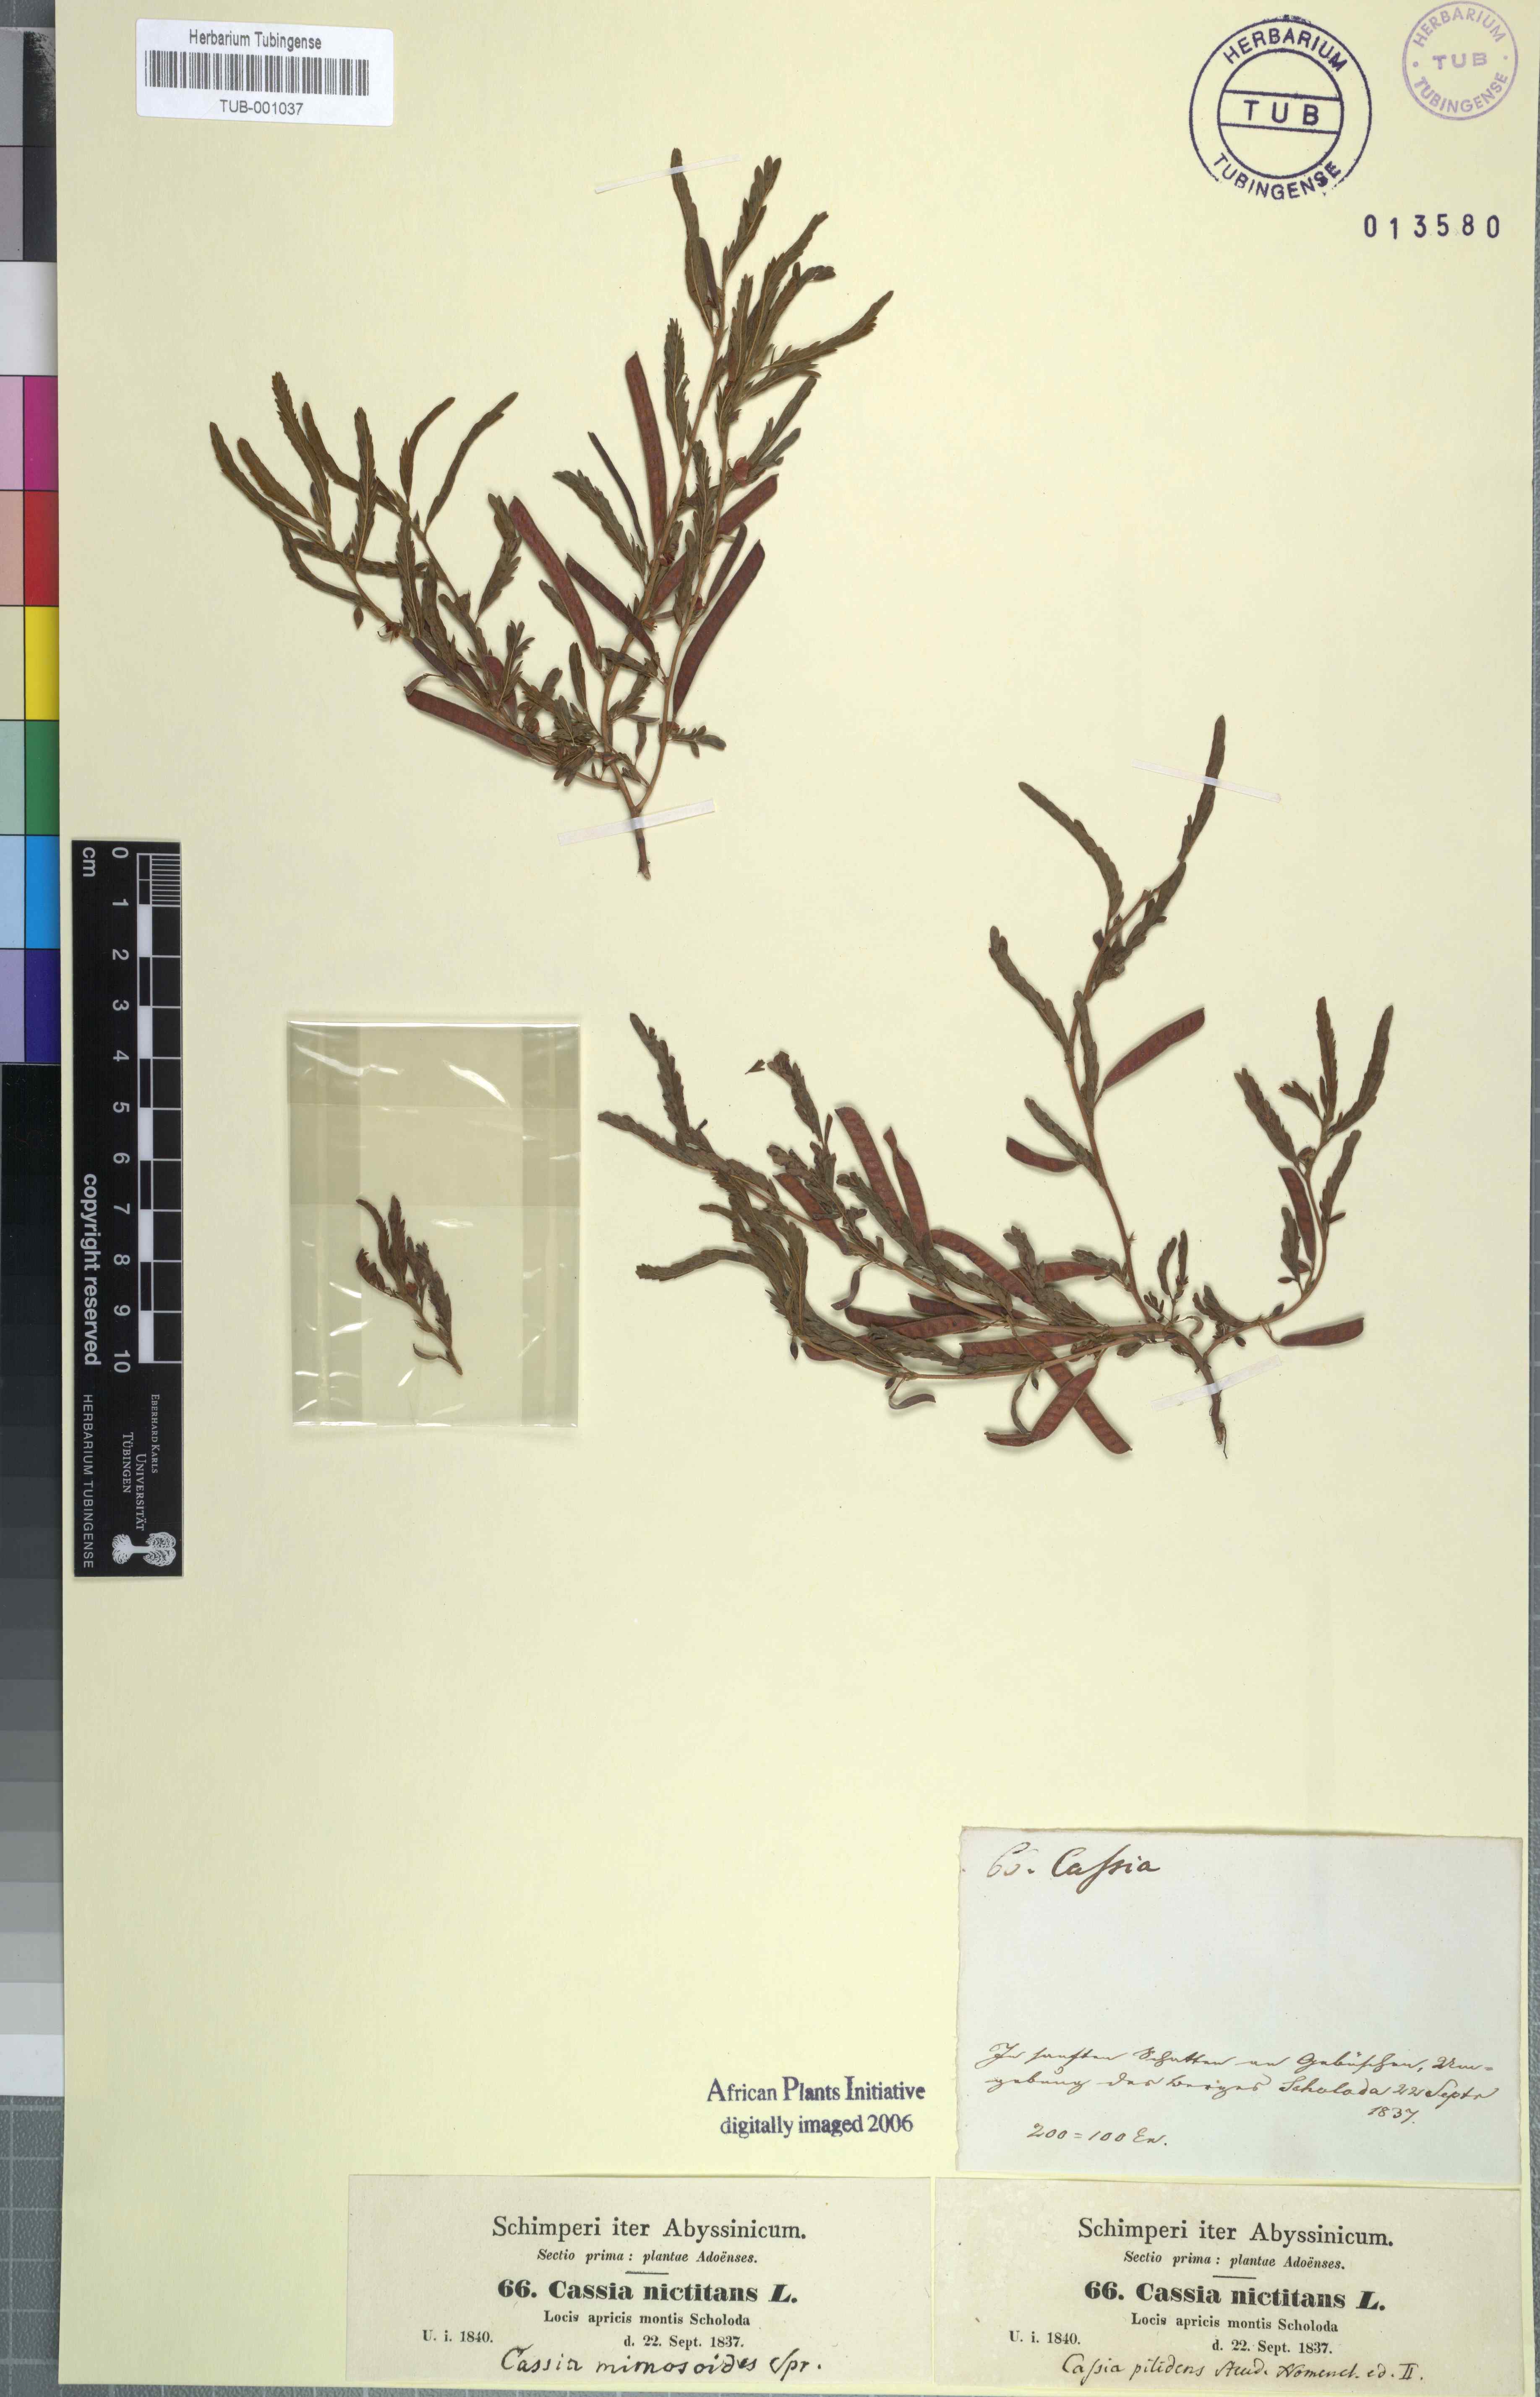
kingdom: Plantae
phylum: Tracheophyta
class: Magnoliopsida
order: Fabales
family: Fabaceae
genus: Chamaecrista
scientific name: Chamaecrista nictitans
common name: Sensitive cassia
